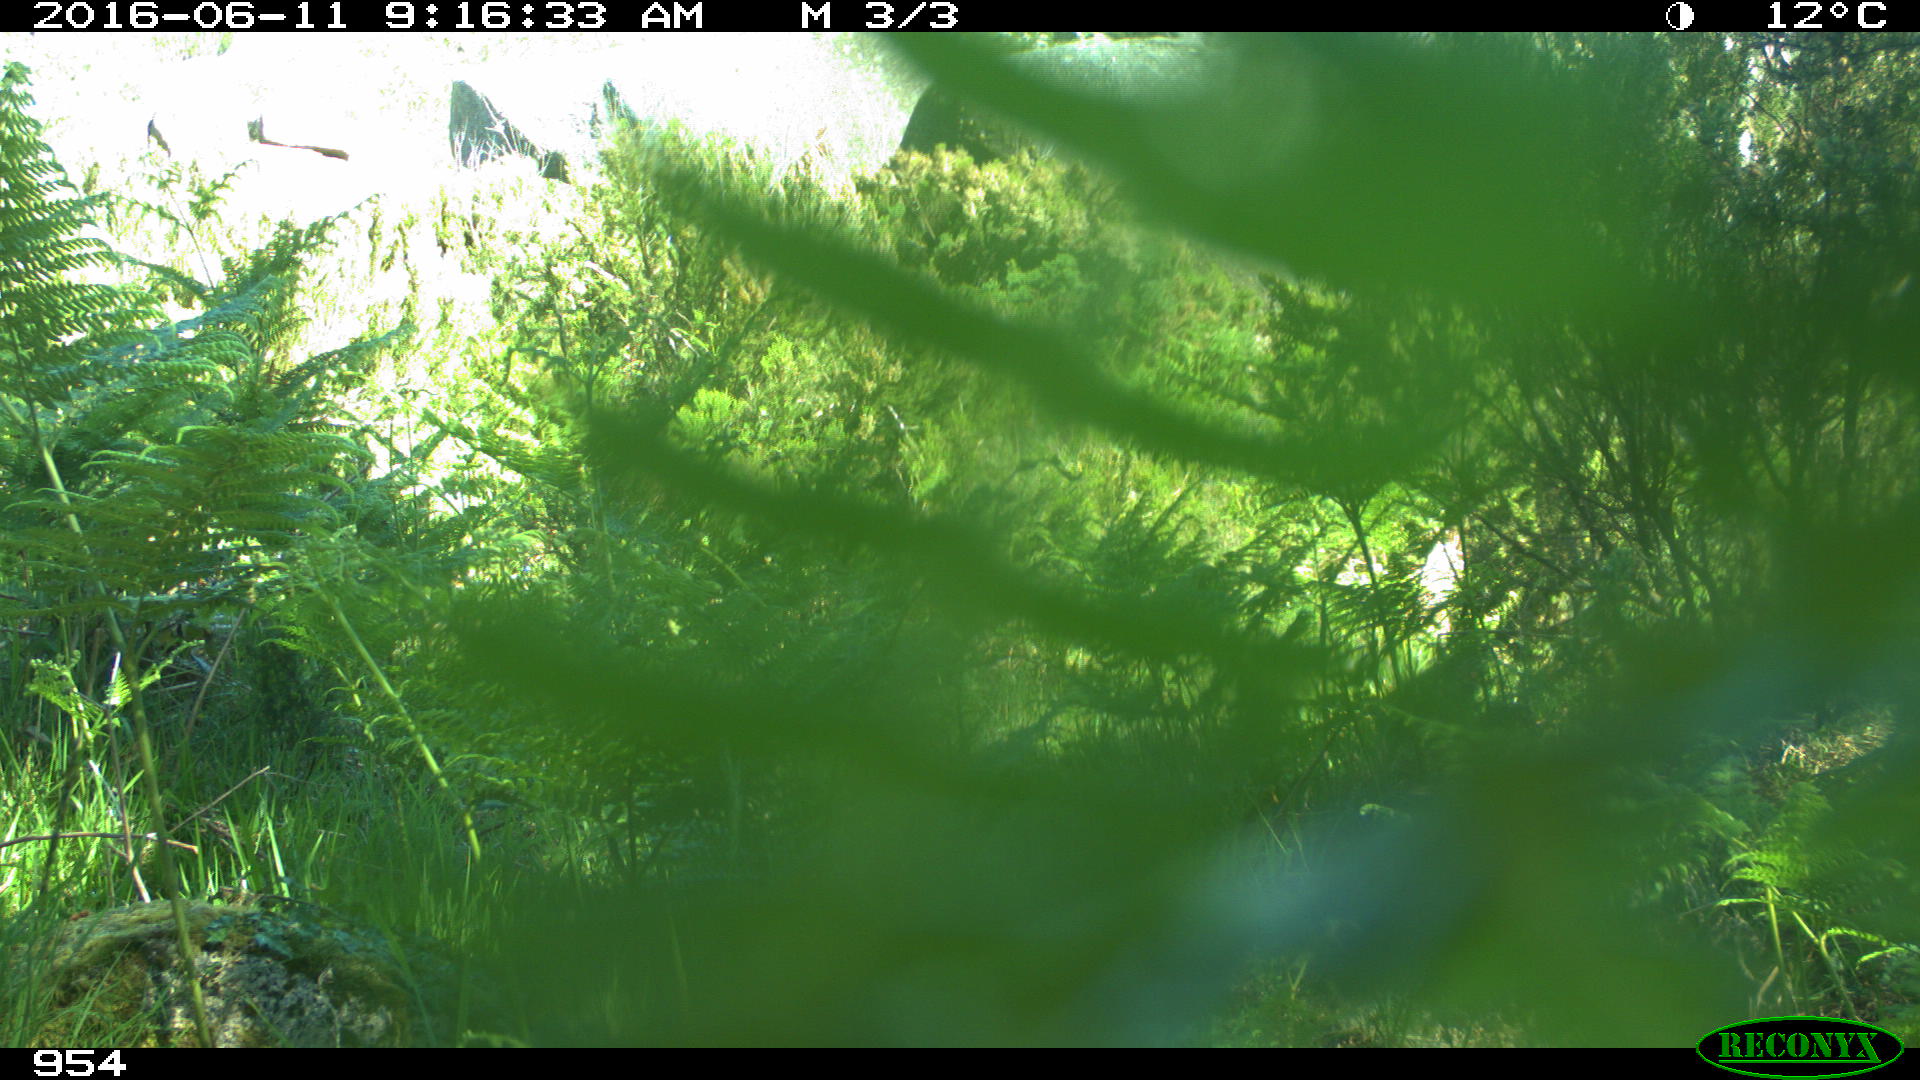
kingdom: Animalia
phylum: Chordata
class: Mammalia
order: Carnivora
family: Canidae
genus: Vulpes
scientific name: Vulpes vulpes
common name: Red fox
